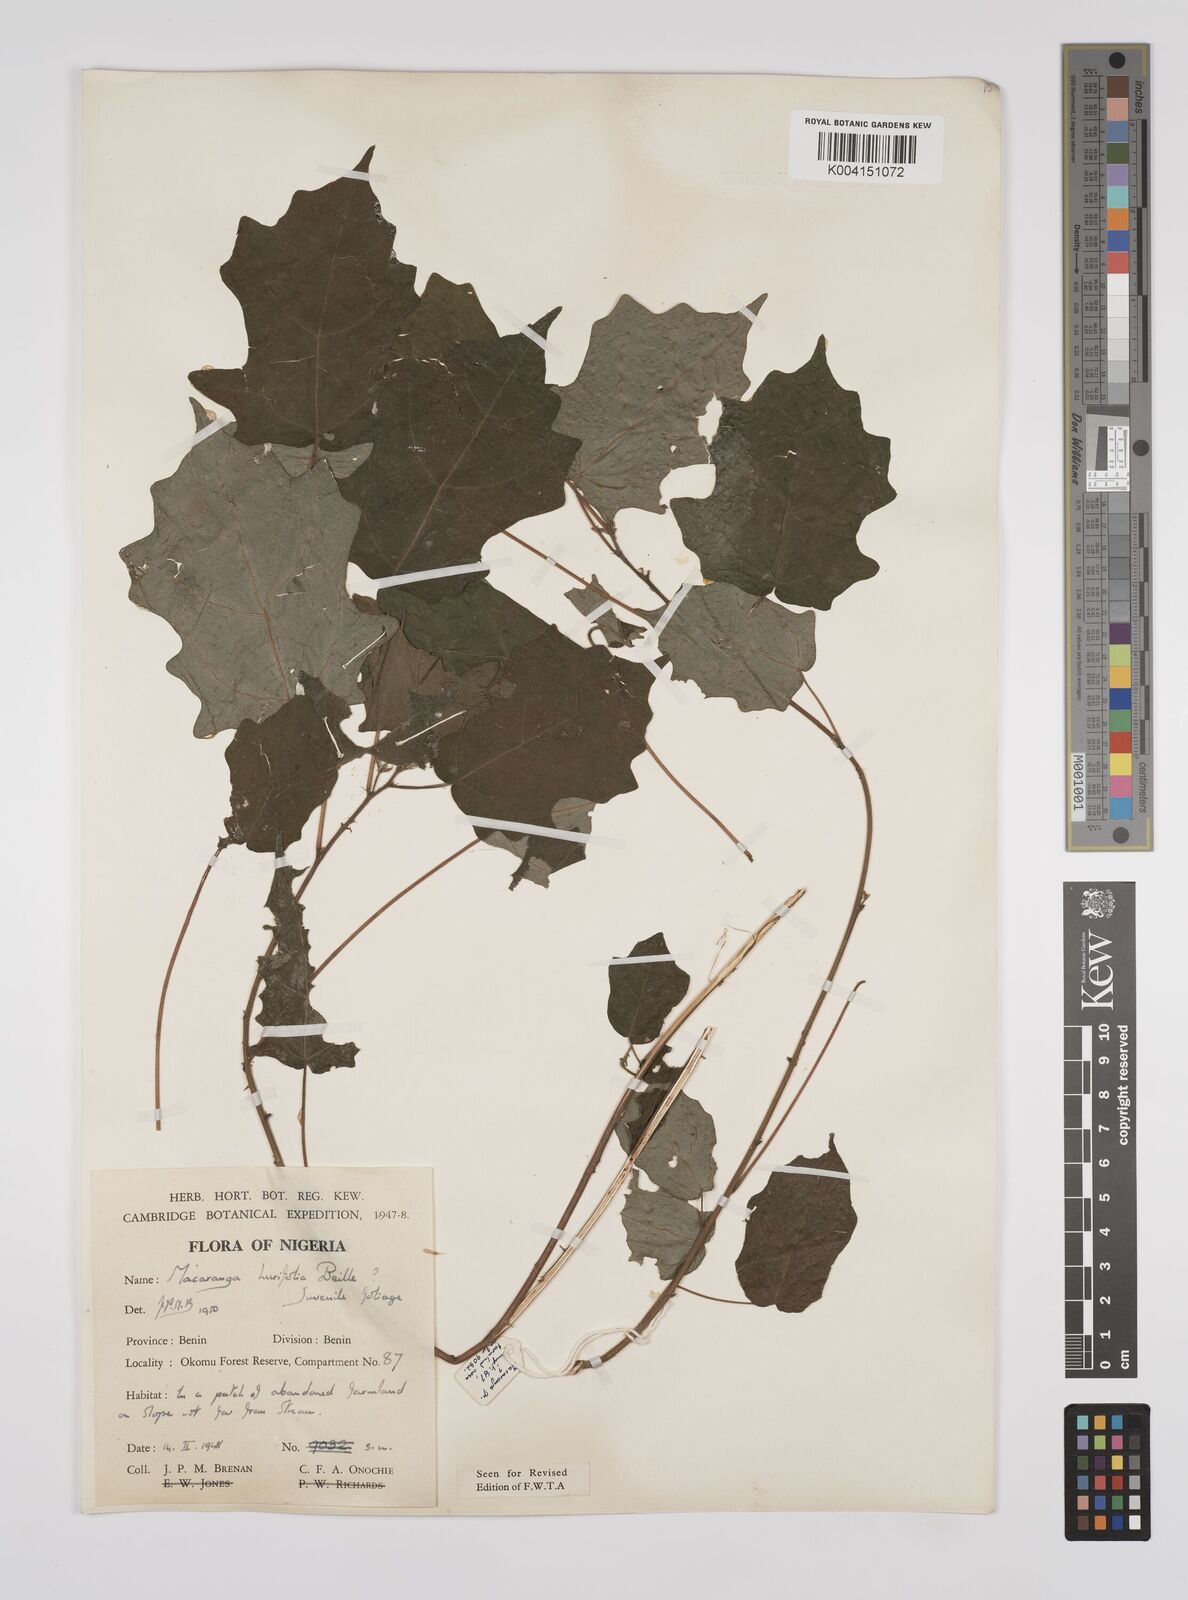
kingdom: Plantae
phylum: Tracheophyta
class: Magnoliopsida
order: Malpighiales
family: Euphorbiaceae
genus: Macaranga
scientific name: Macaranga hurifolia
